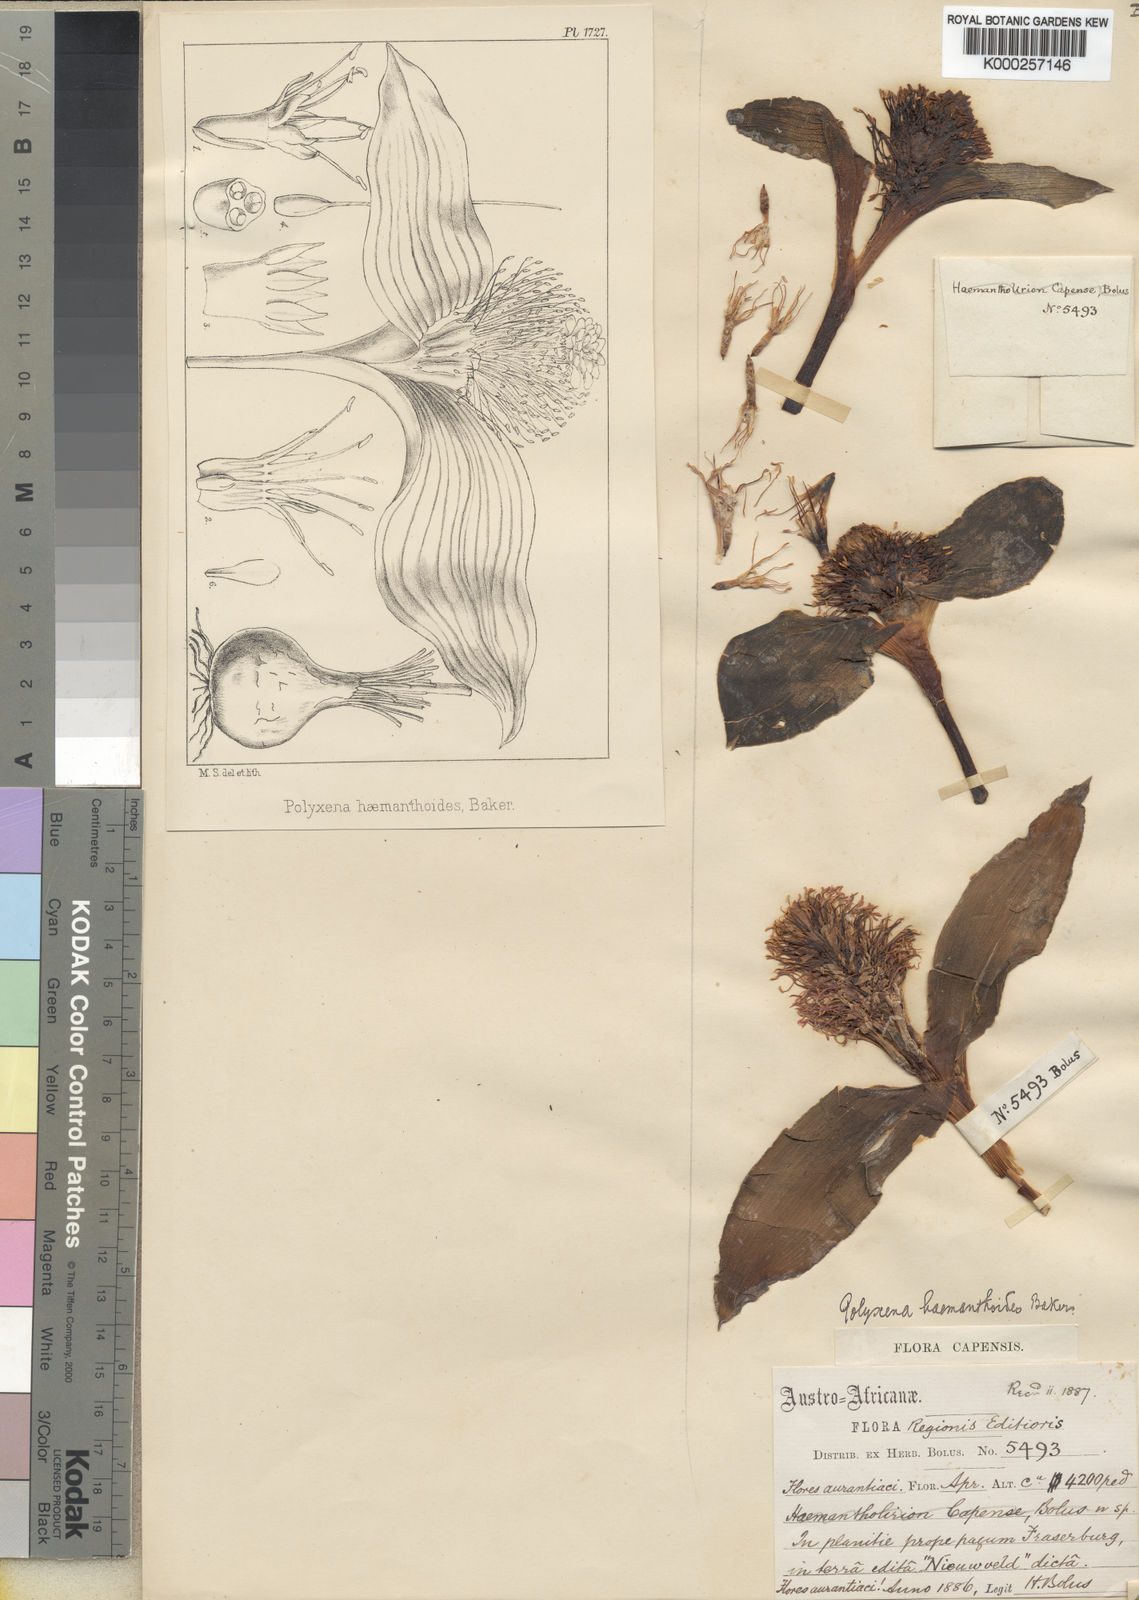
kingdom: Plantae
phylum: Tracheophyta
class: Liliopsida
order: Asparagales
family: Asparagaceae
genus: Massonia
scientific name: Massonia angustifolia
